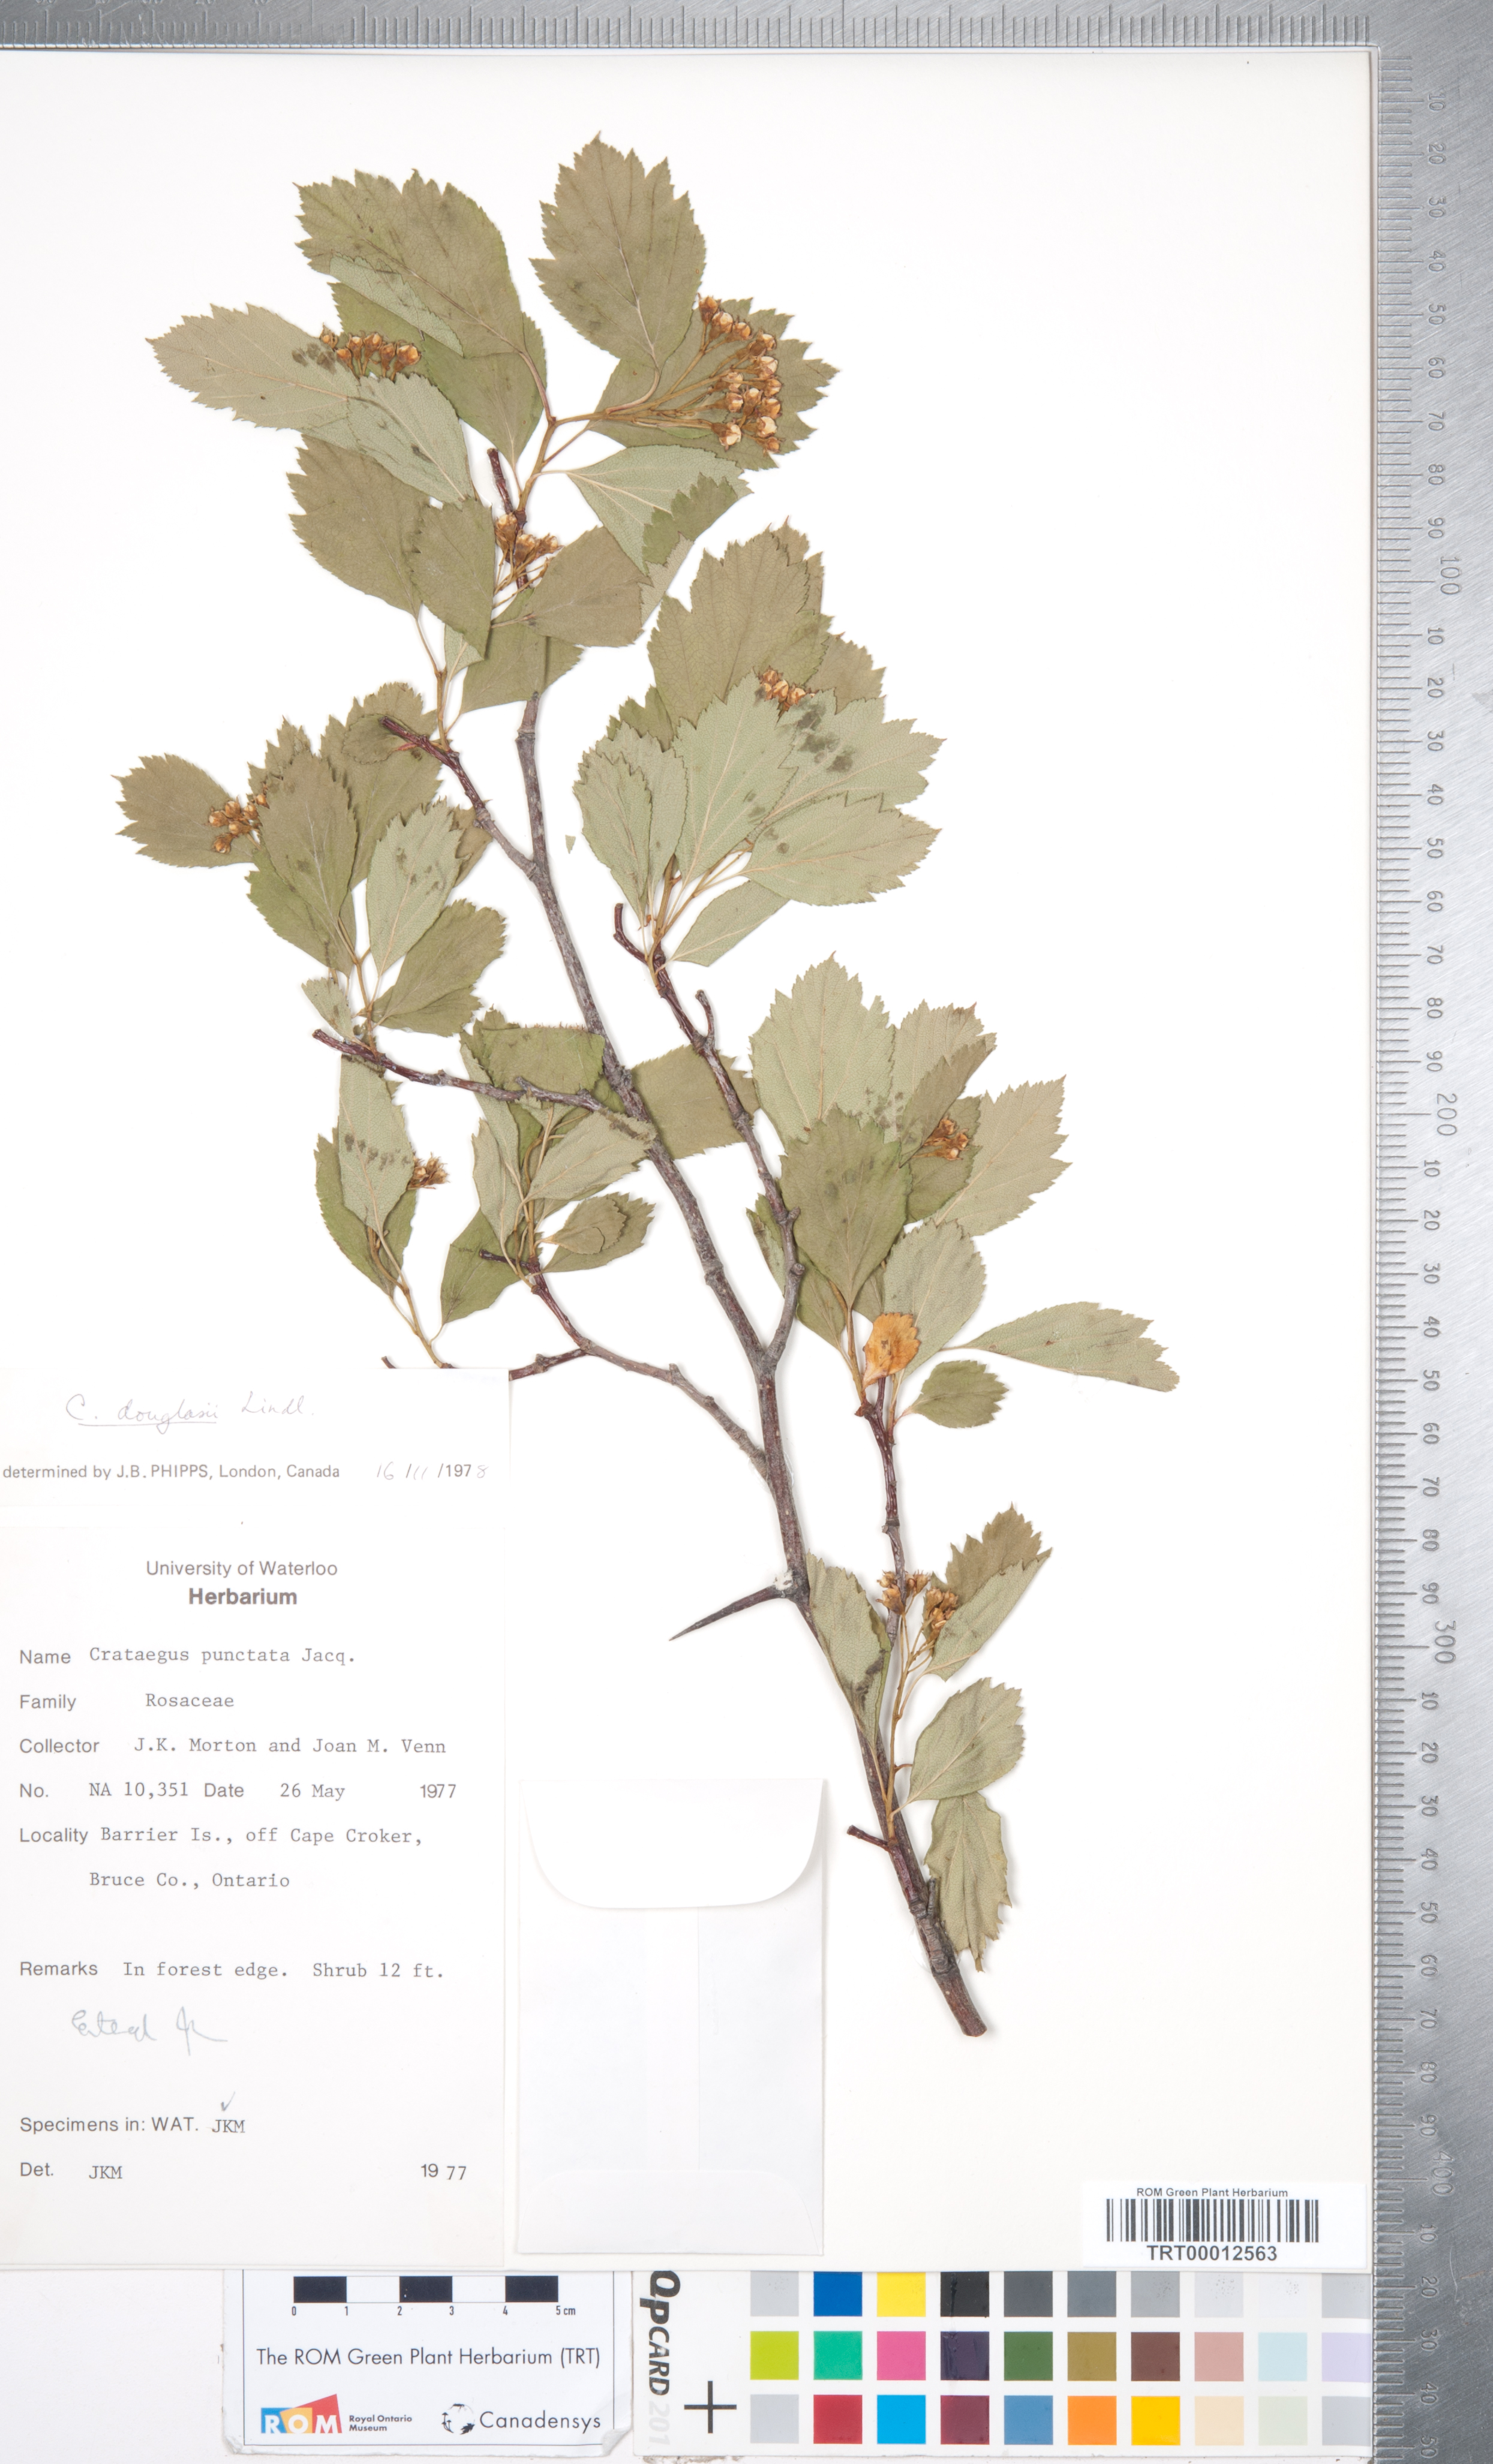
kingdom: Plantae
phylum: Tracheophyta
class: Magnoliopsida
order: Rosales
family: Rosaceae
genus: Crataegus
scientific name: Crataegus douglasii
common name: Black hawthorn
